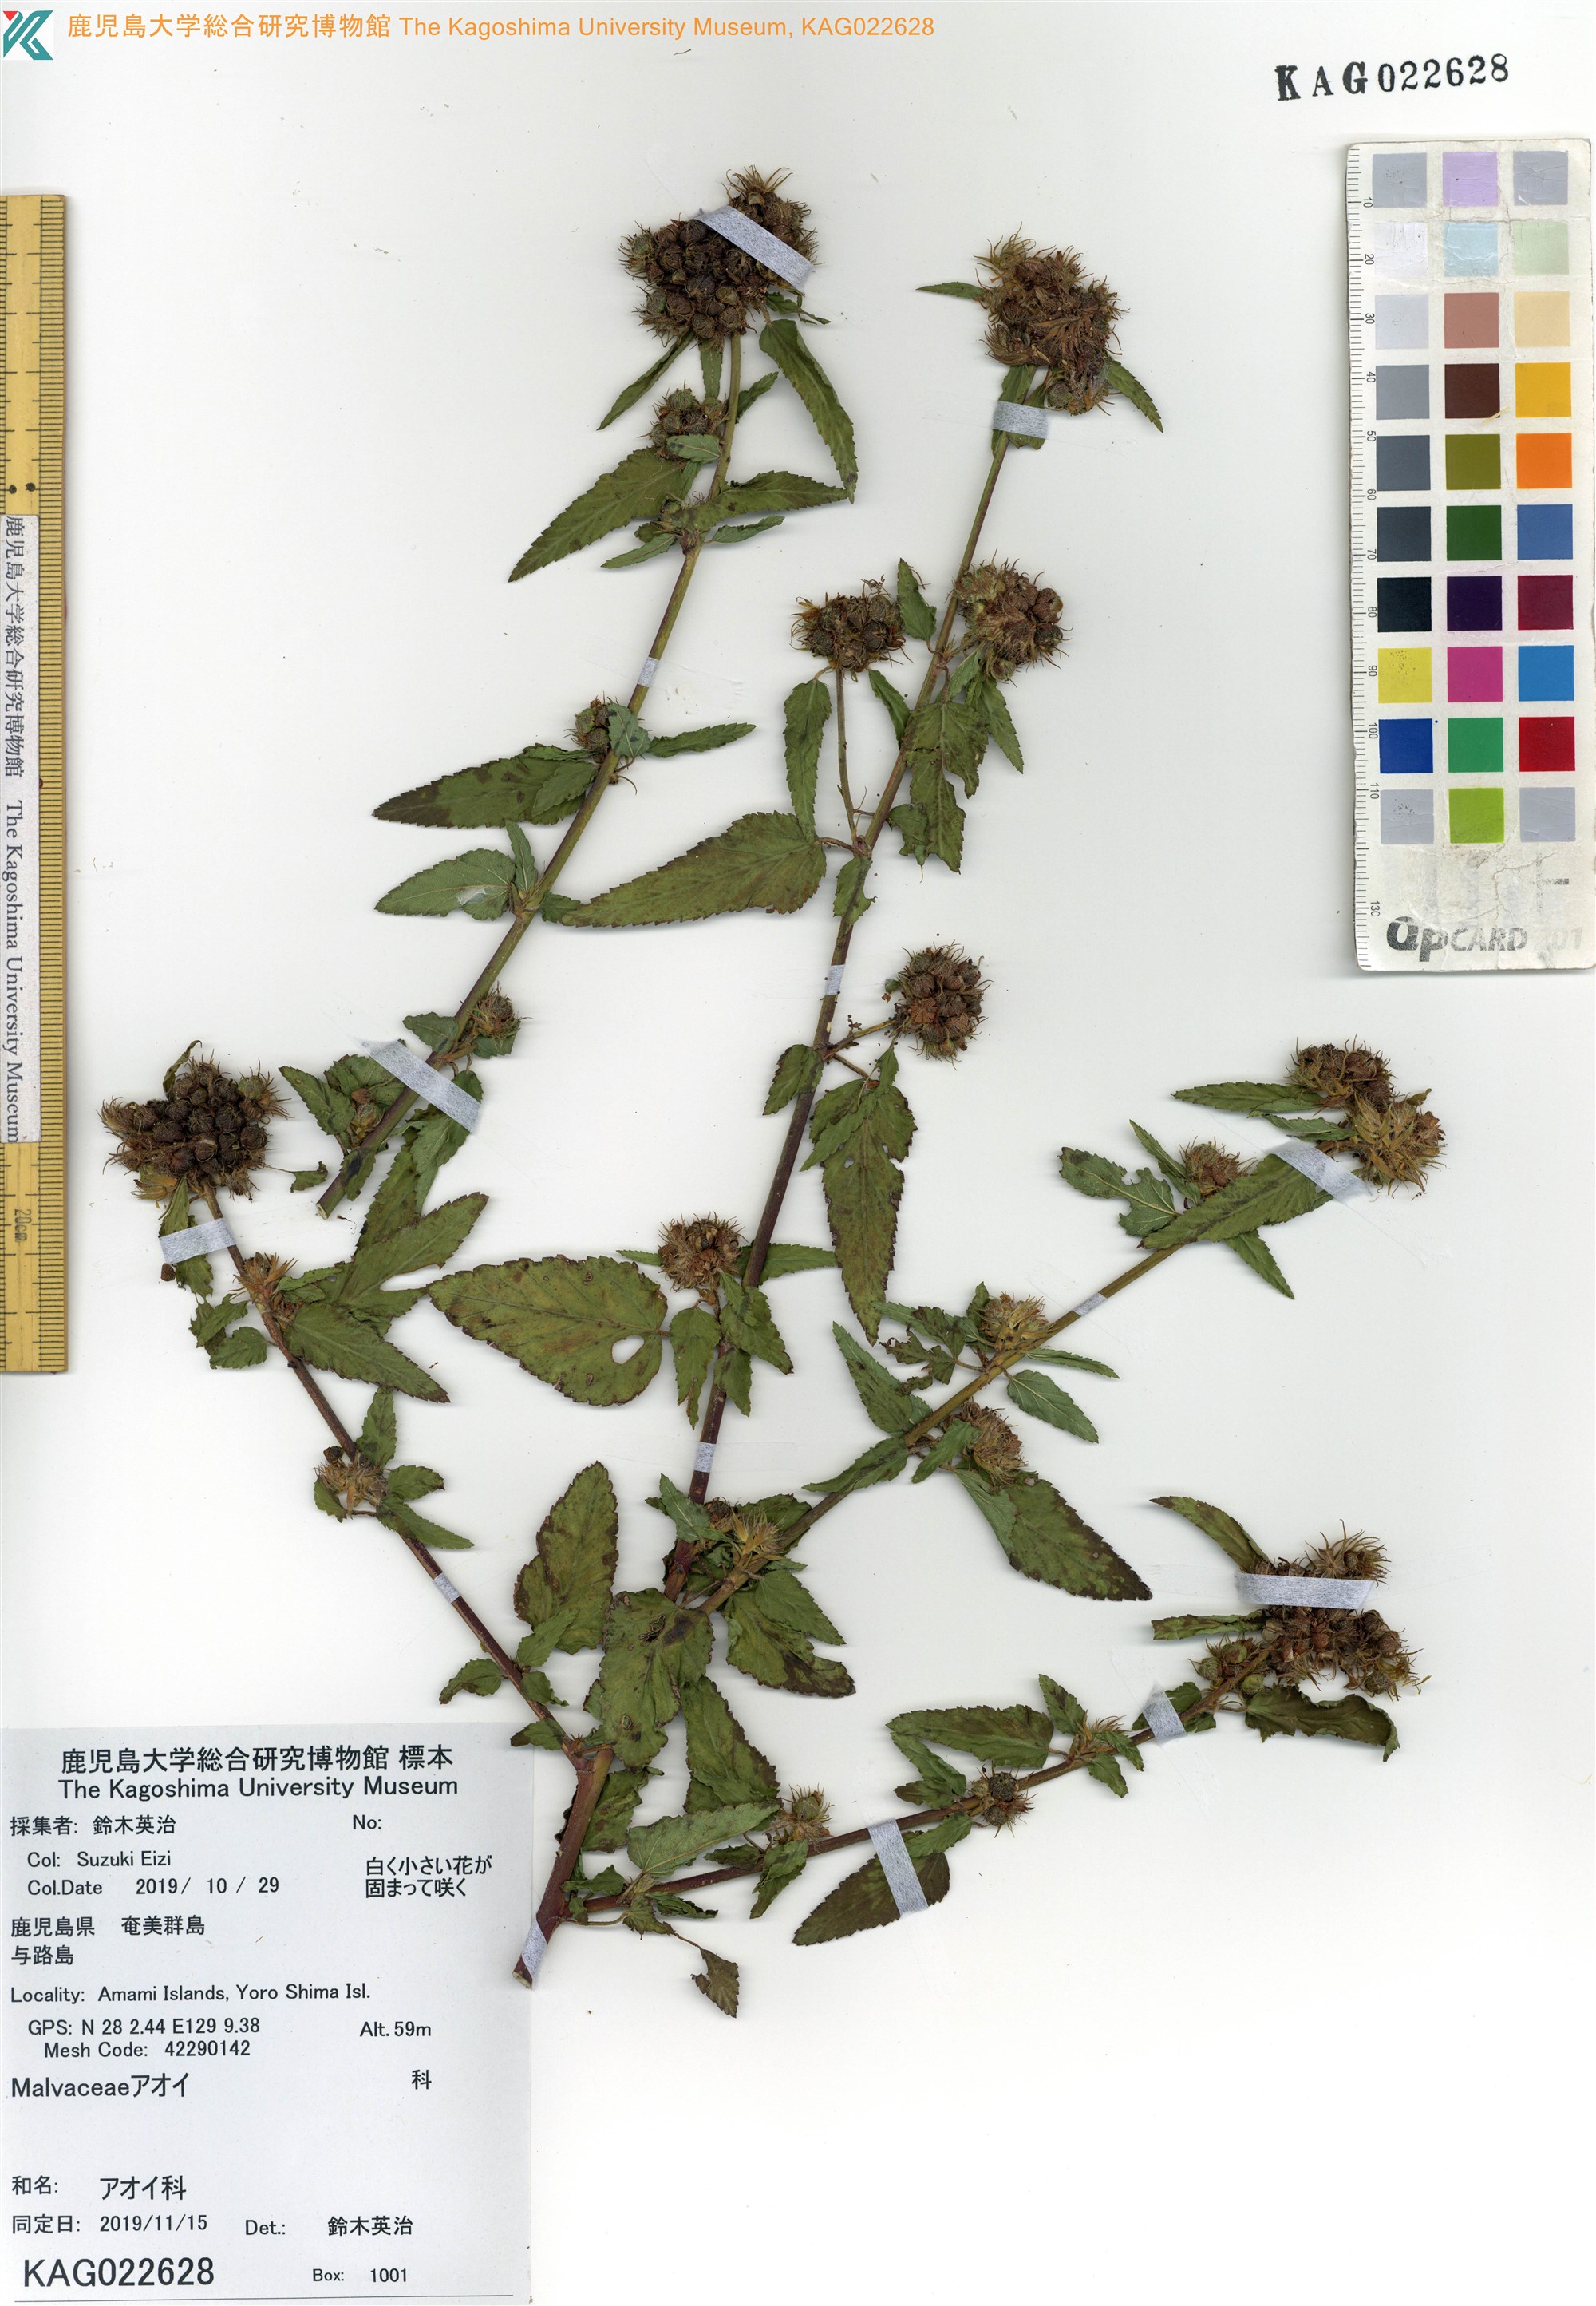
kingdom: Plantae
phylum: Tracheophyta
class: Magnoliopsida
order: Malvales
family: Malvaceae
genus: Melochia
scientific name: Melochia corchorifolia
